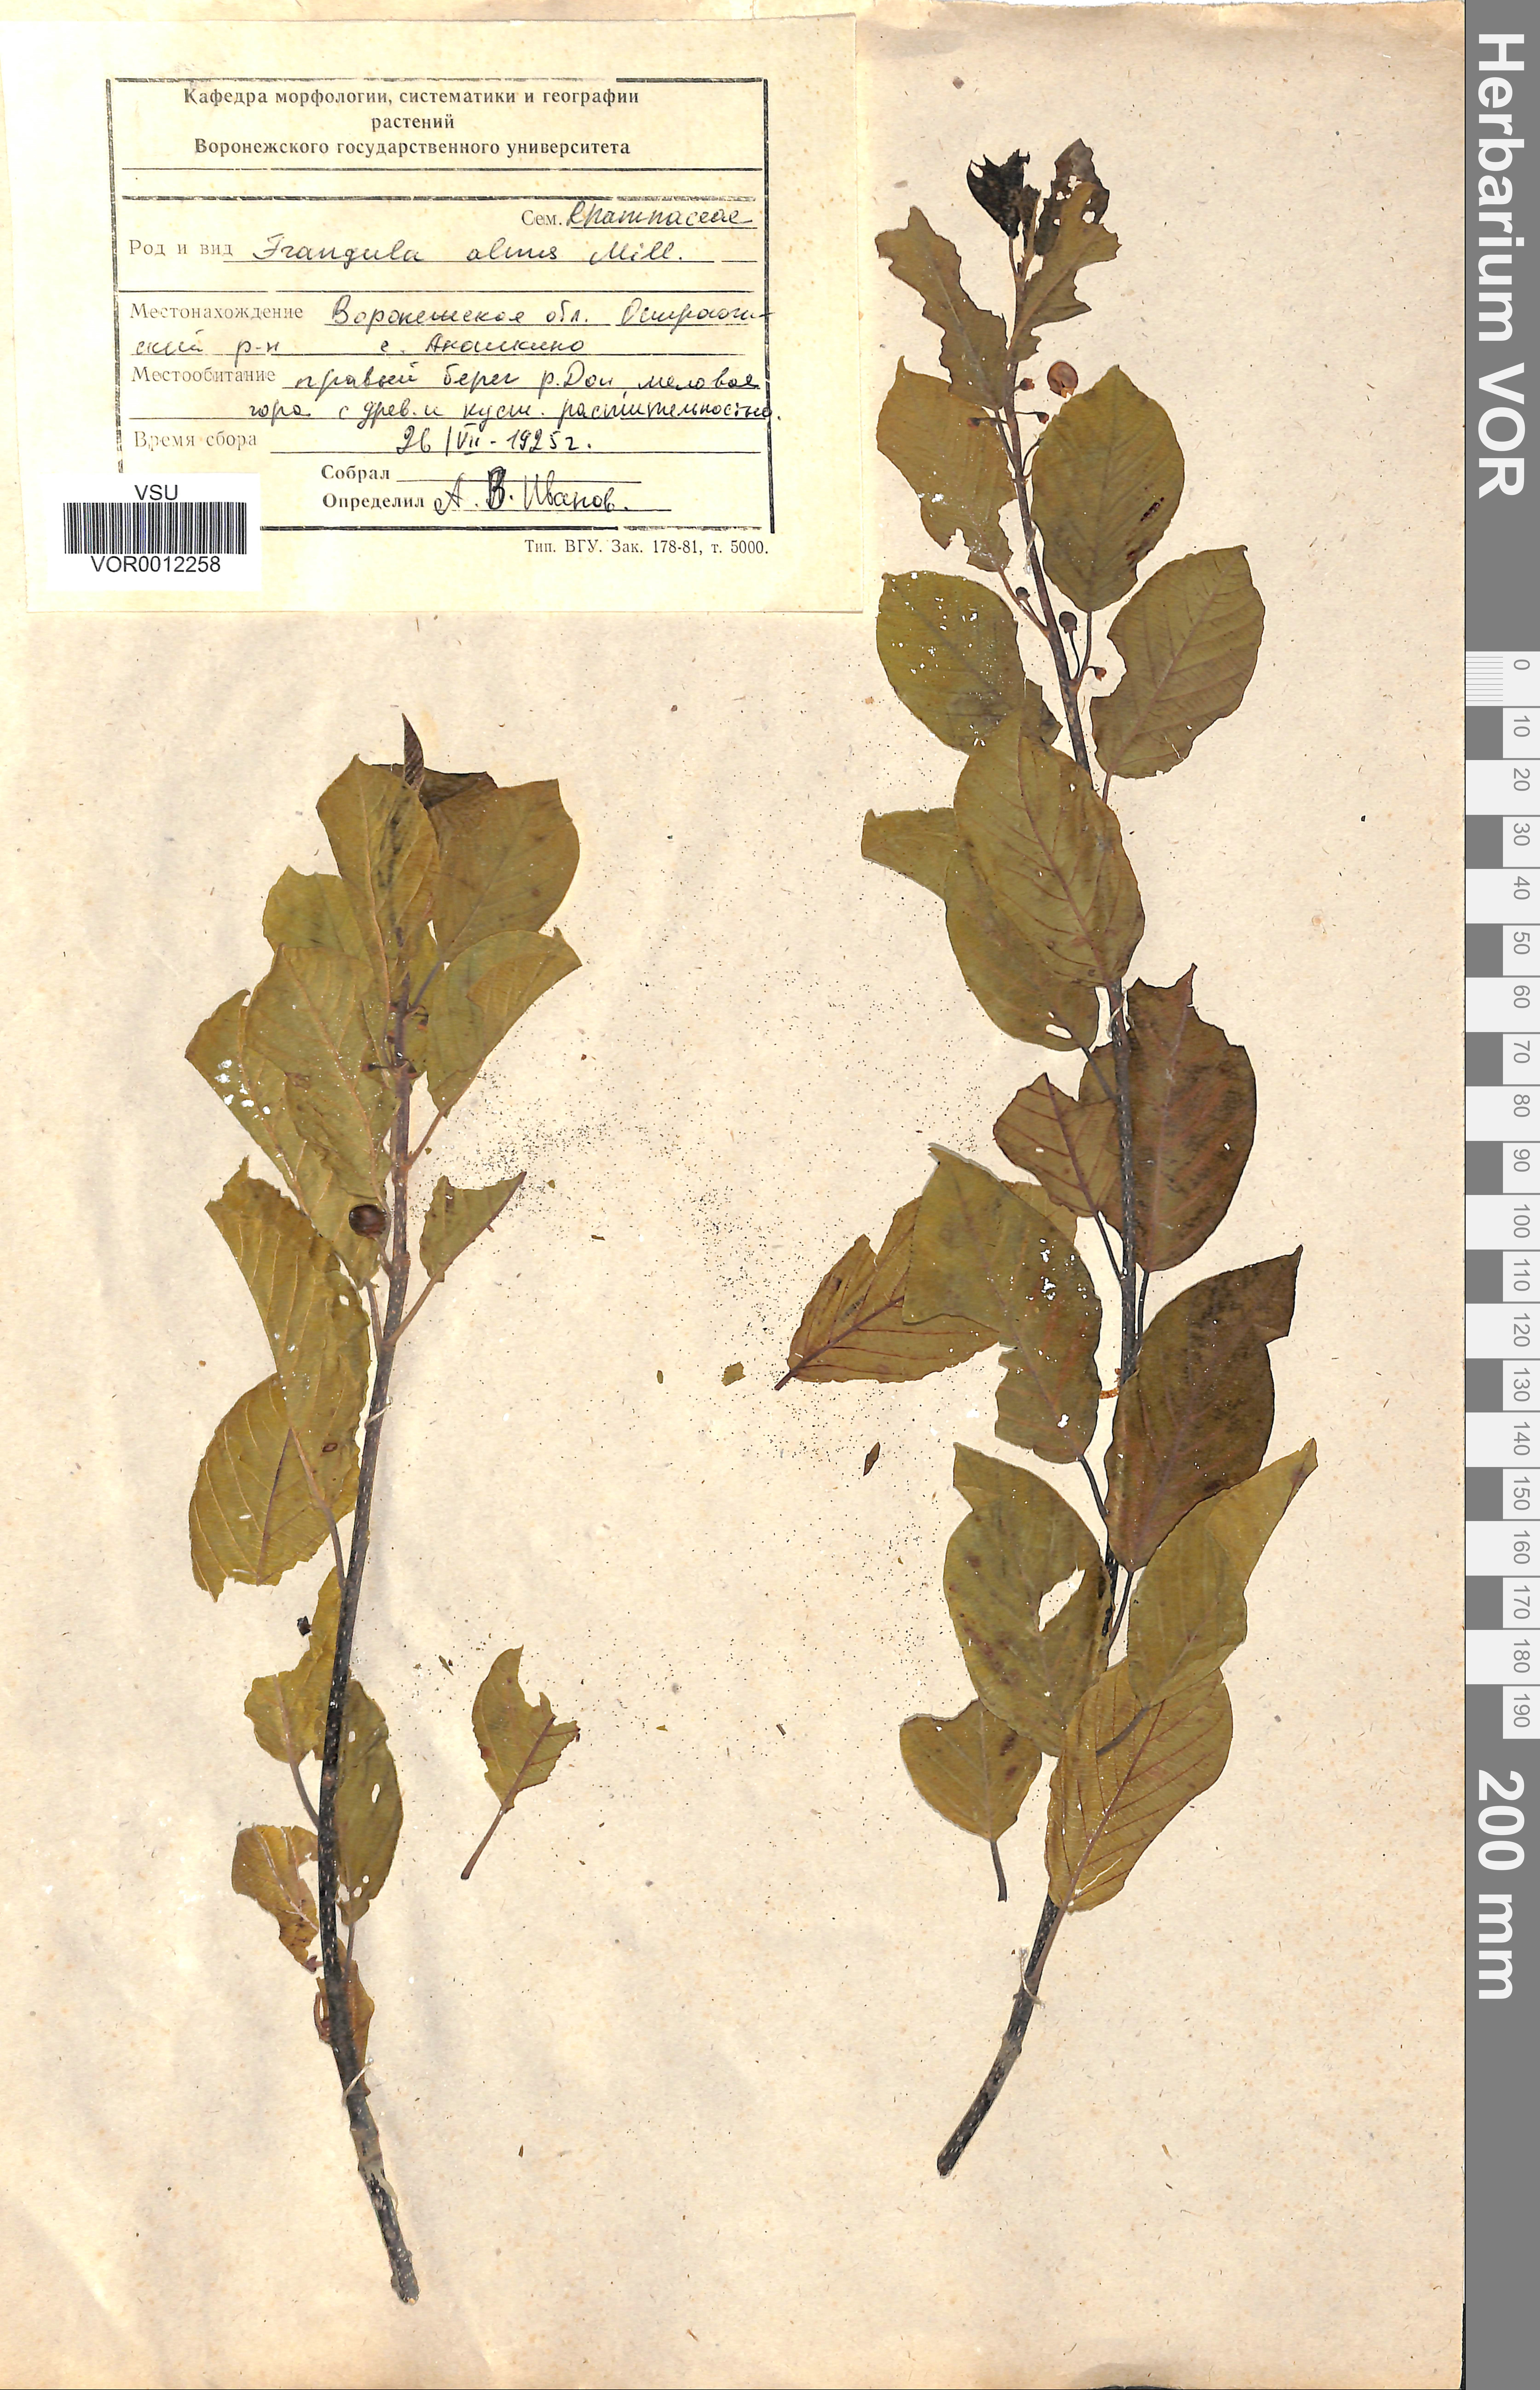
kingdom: Plantae
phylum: Tracheophyta
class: Magnoliopsida
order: Rosales
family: Rhamnaceae
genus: Frangula
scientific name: Frangula alnus
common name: Alder buckthorn
